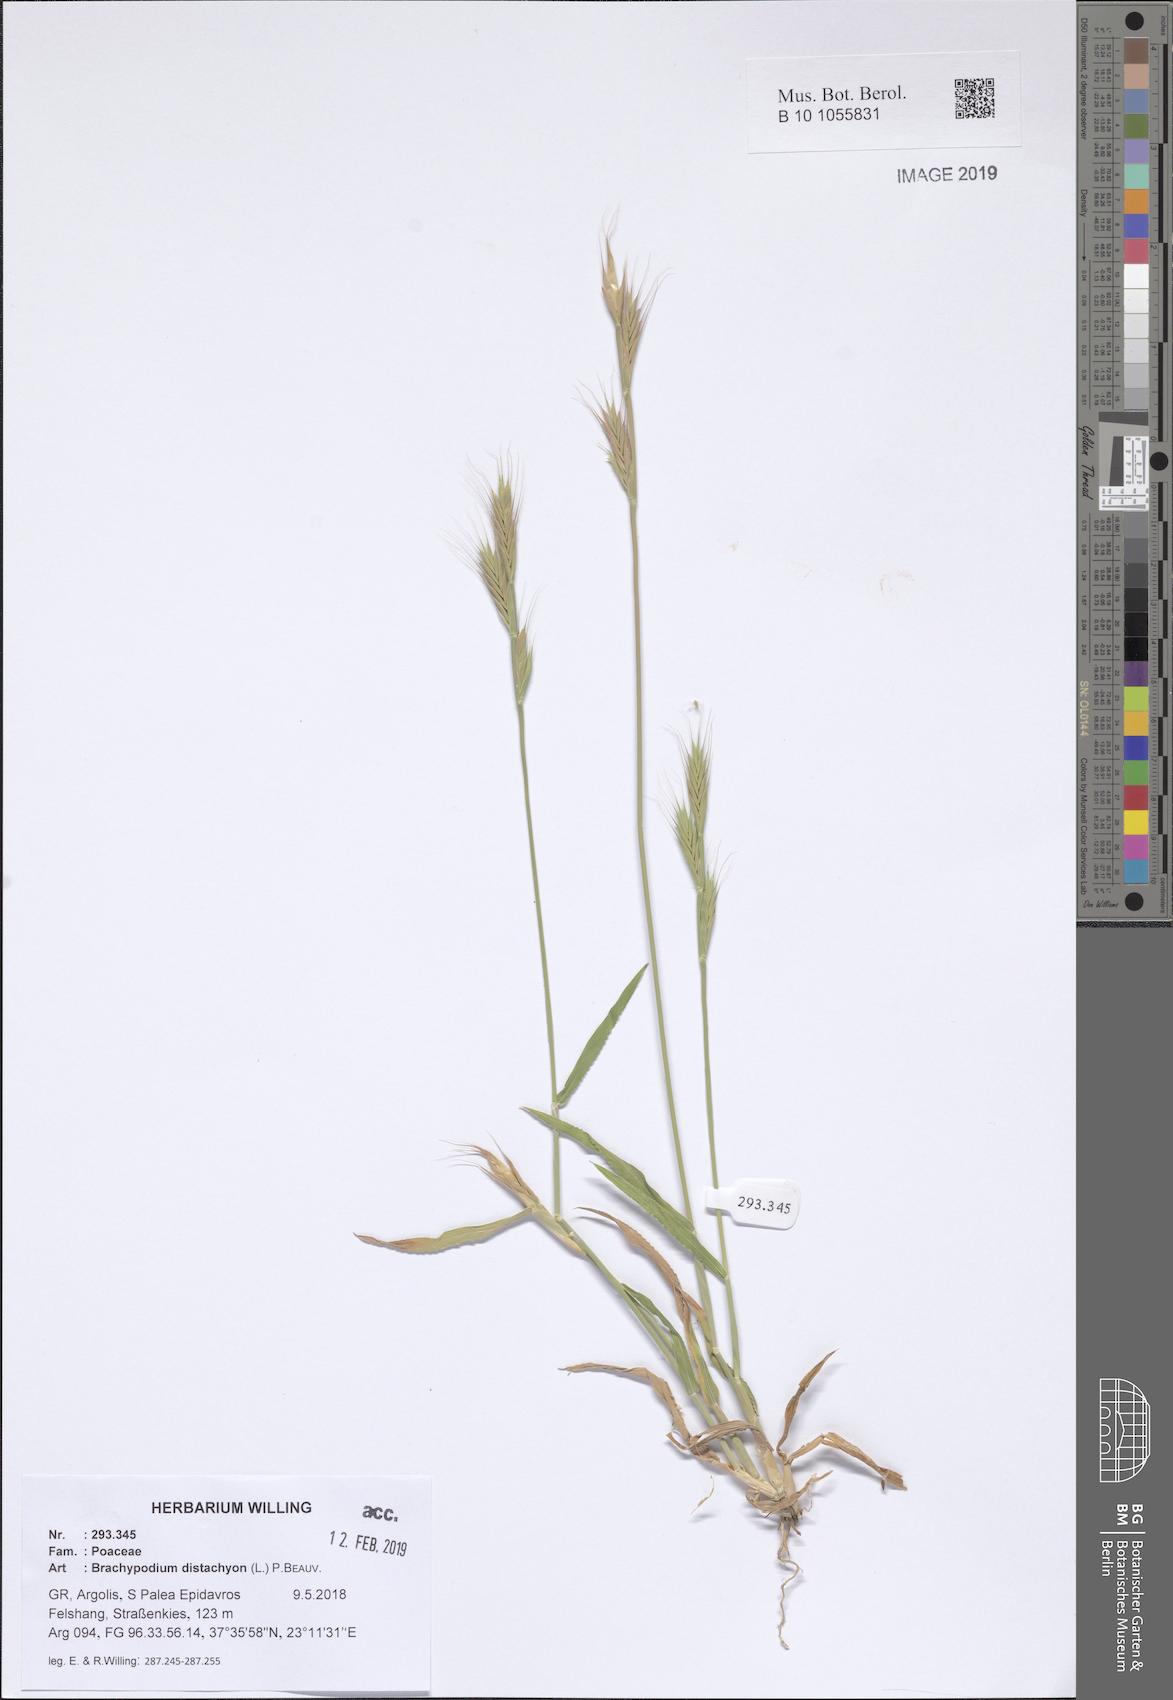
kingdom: Plantae
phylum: Tracheophyta
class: Liliopsida
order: Poales
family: Poaceae
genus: Brachypodium
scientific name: Brachypodium distachyon
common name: Stiff brome
